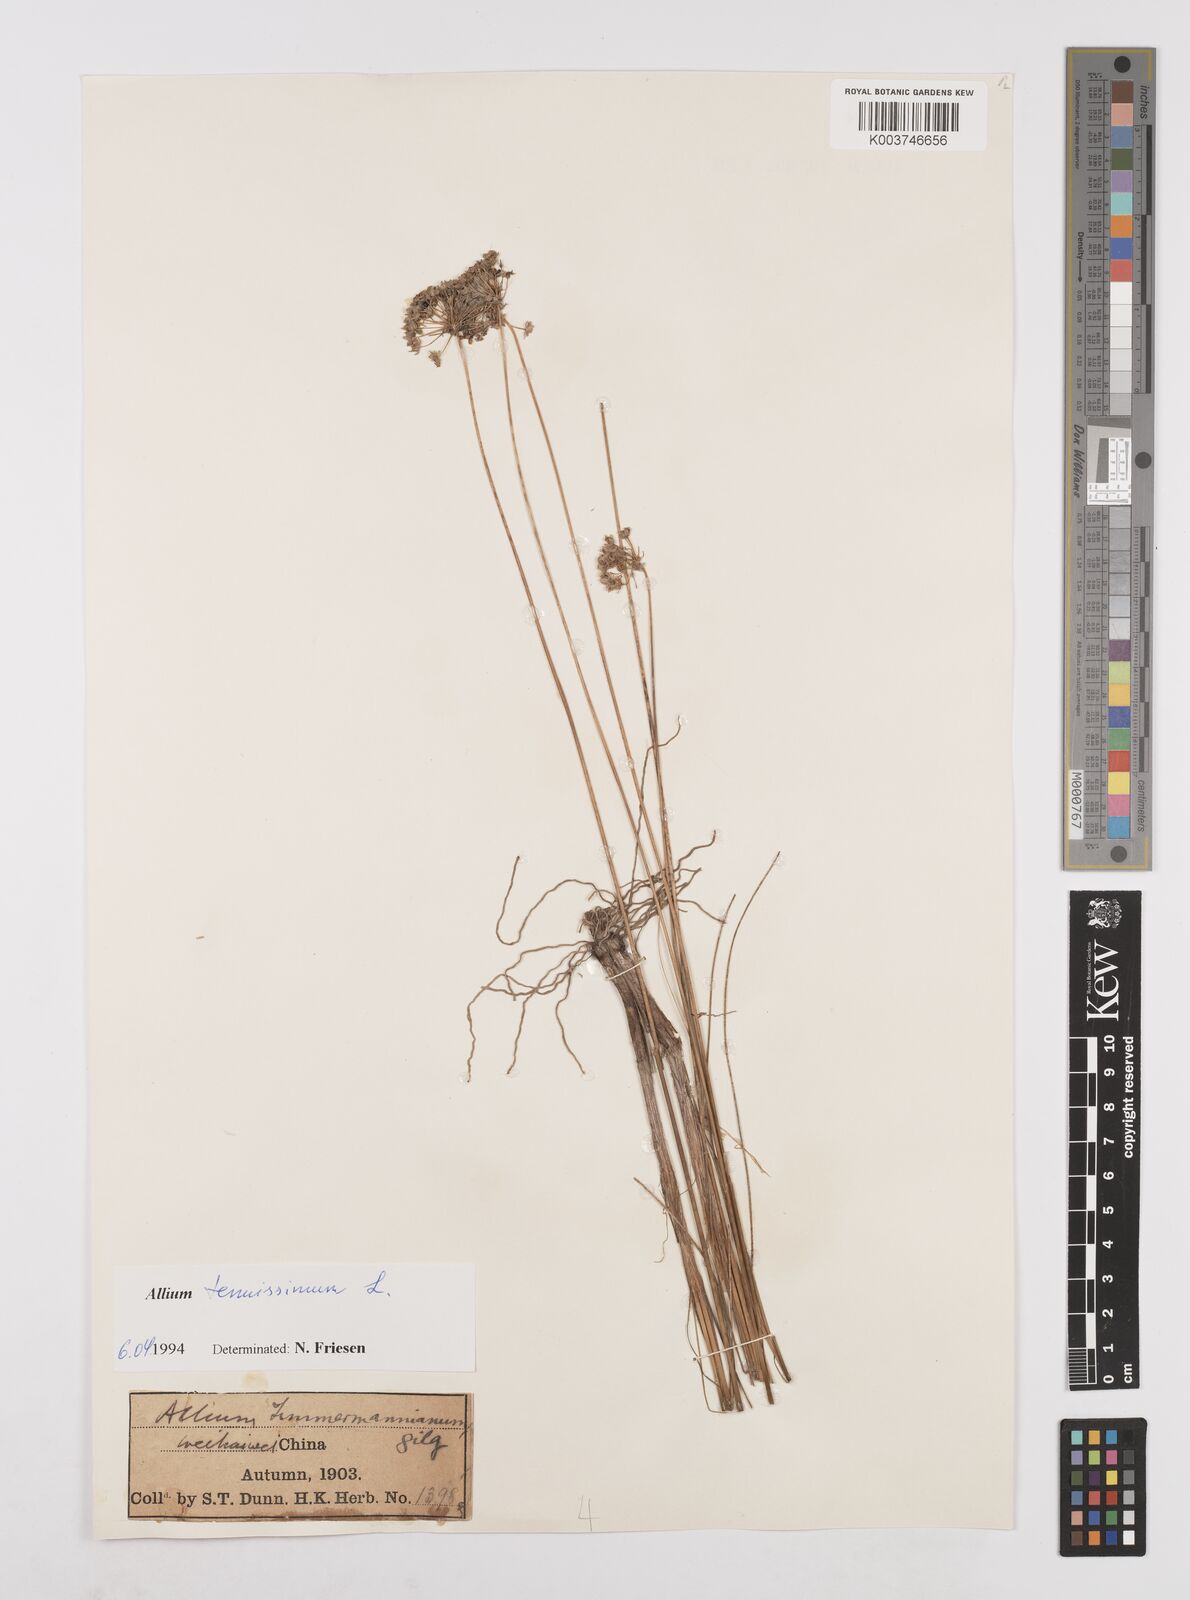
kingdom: Plantae
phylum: Tracheophyta
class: Liliopsida
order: Asparagales
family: Amaryllidaceae
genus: Allium
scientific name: Allium anisopodium
